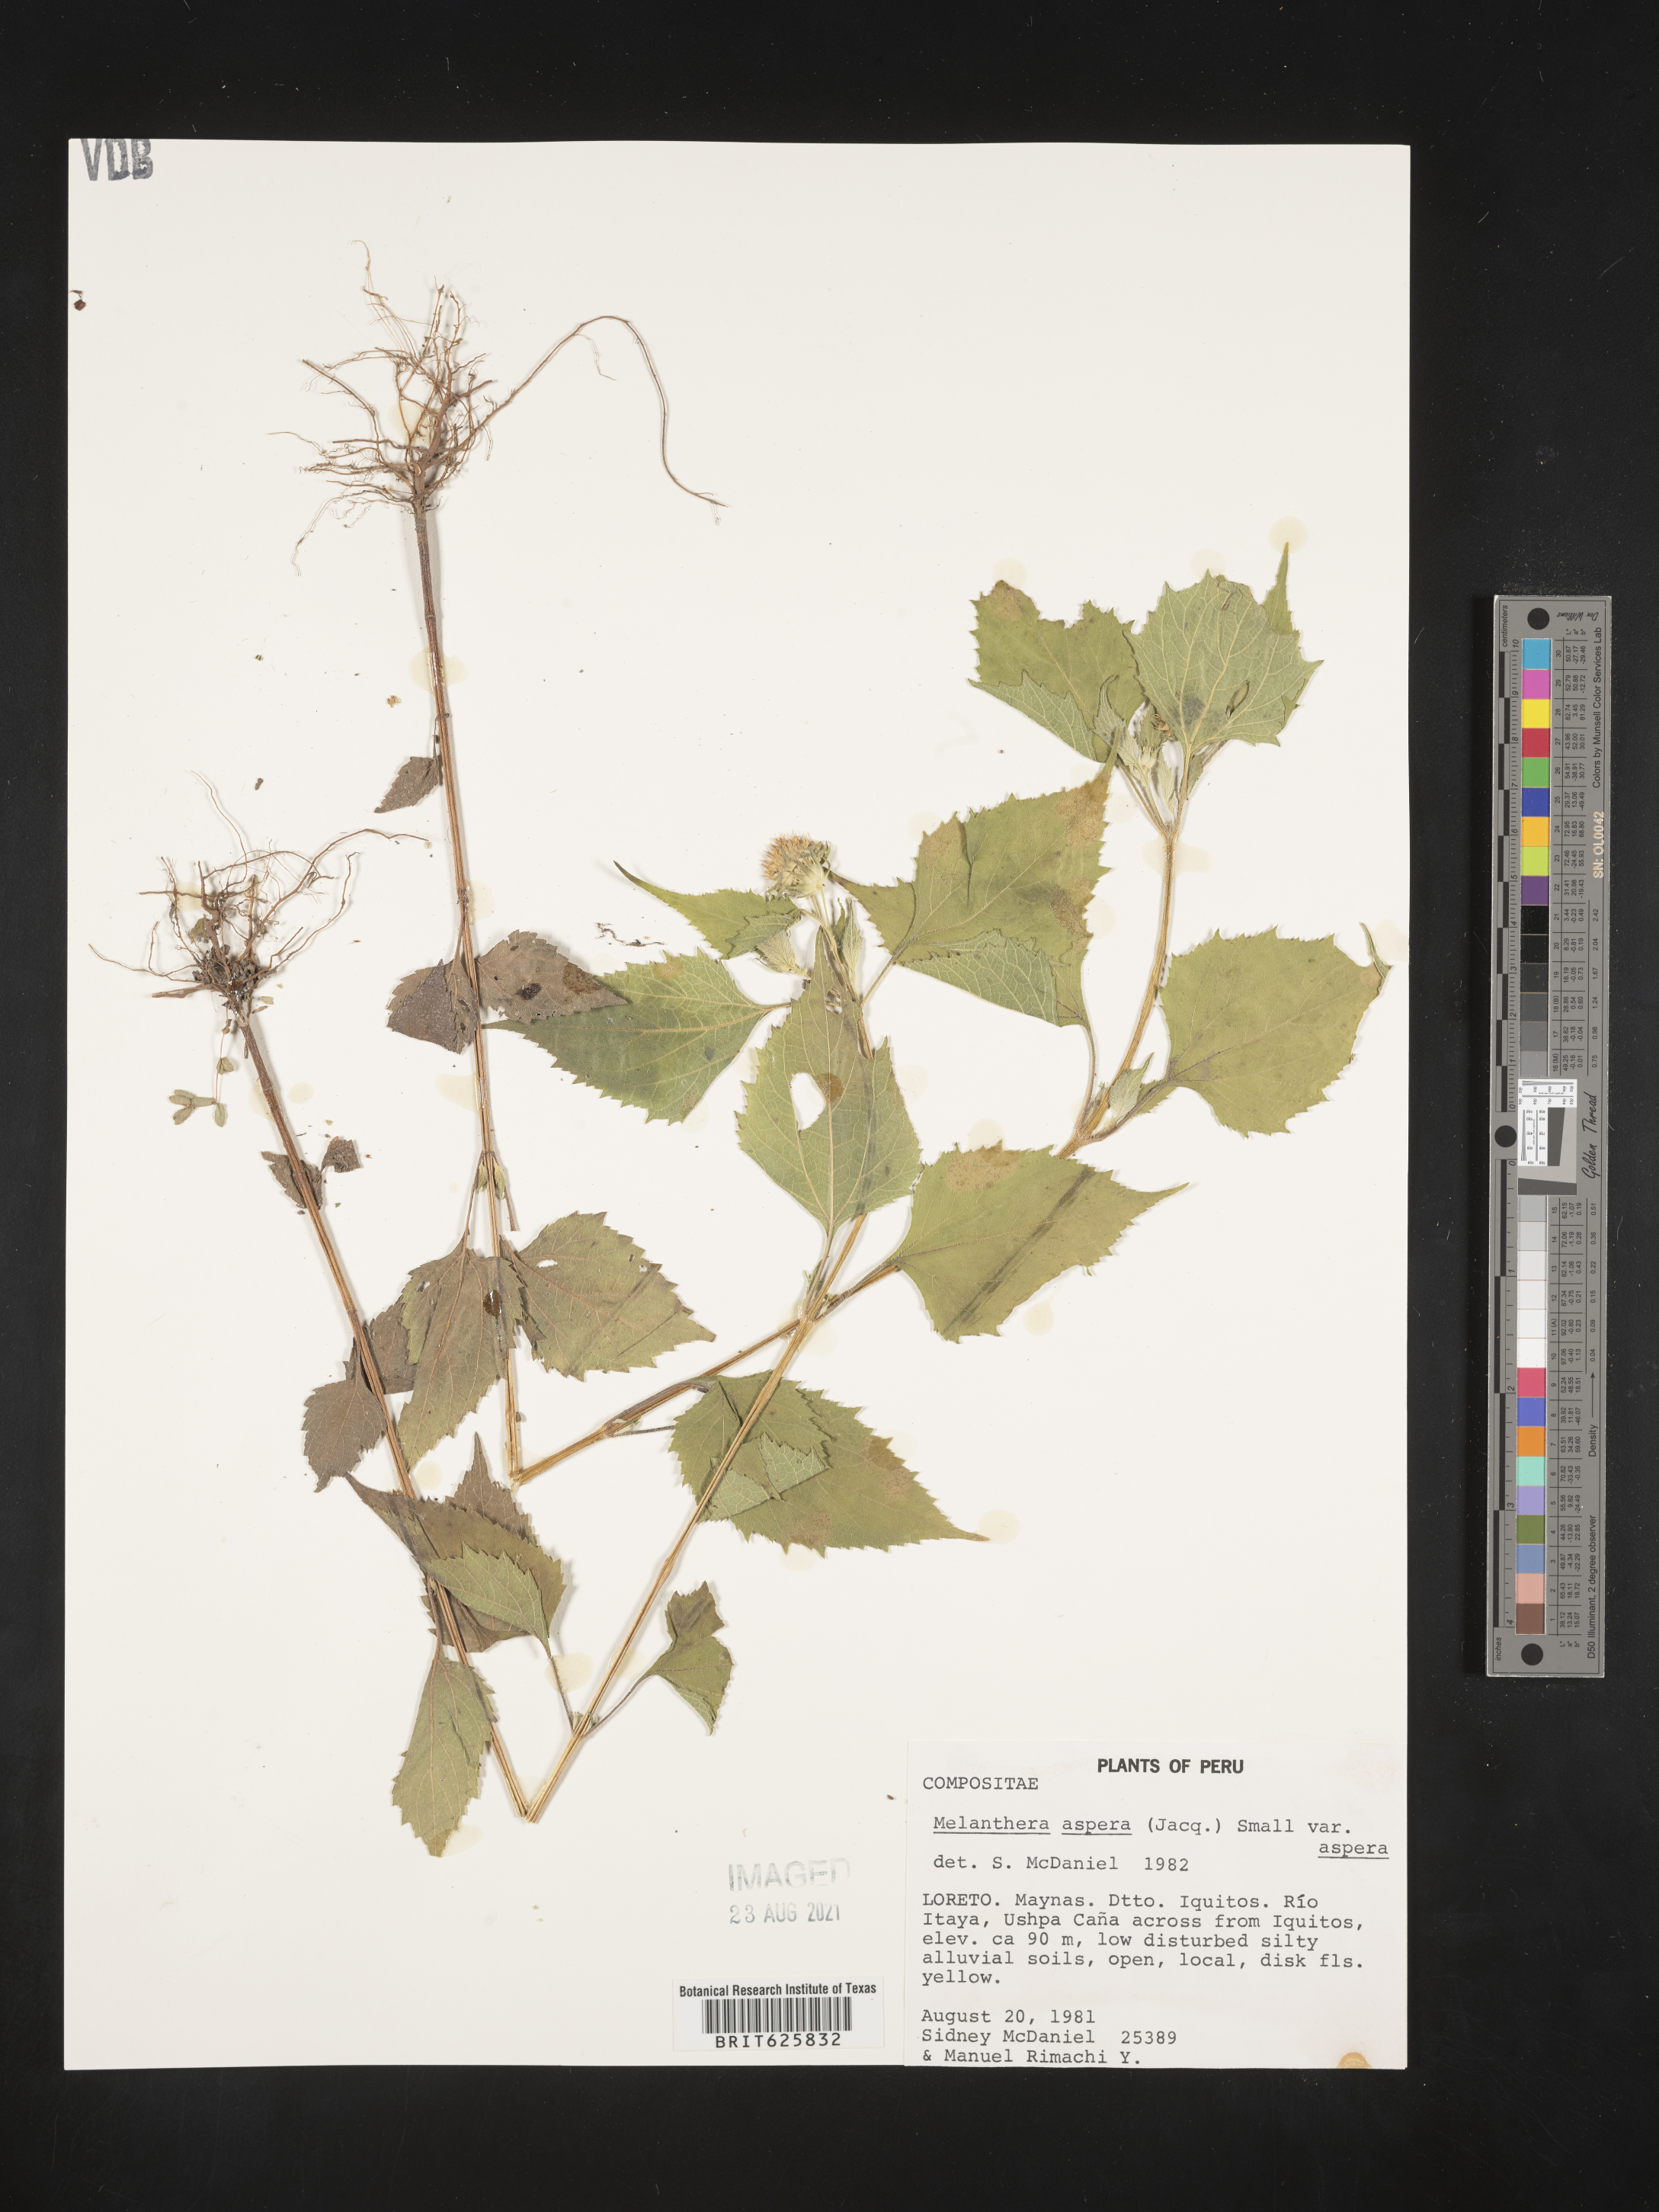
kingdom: Plantae
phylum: Tracheophyta
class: Magnoliopsida
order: Asterales
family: Asteraceae
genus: Melanthera
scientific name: Melanthera nivea
